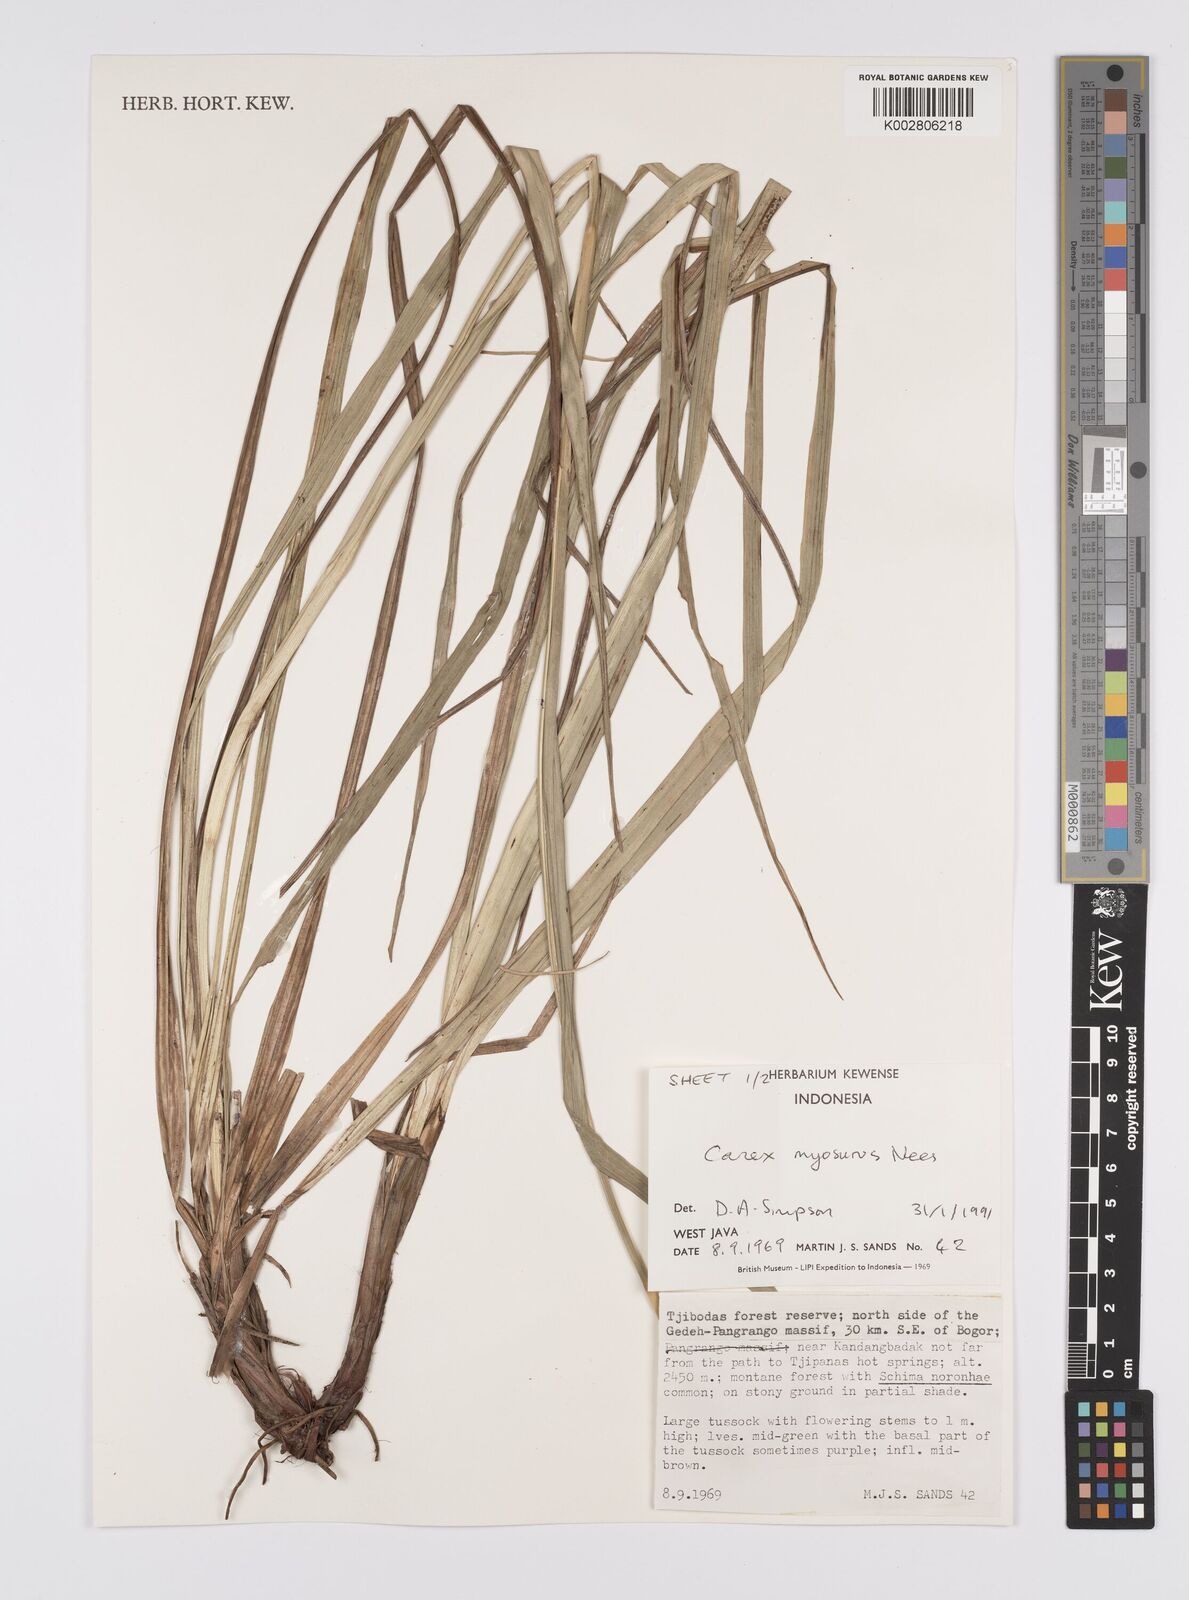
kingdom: Plantae
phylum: Tracheophyta
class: Liliopsida
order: Poales
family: Cyperaceae
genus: Carex
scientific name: Carex myosurus
